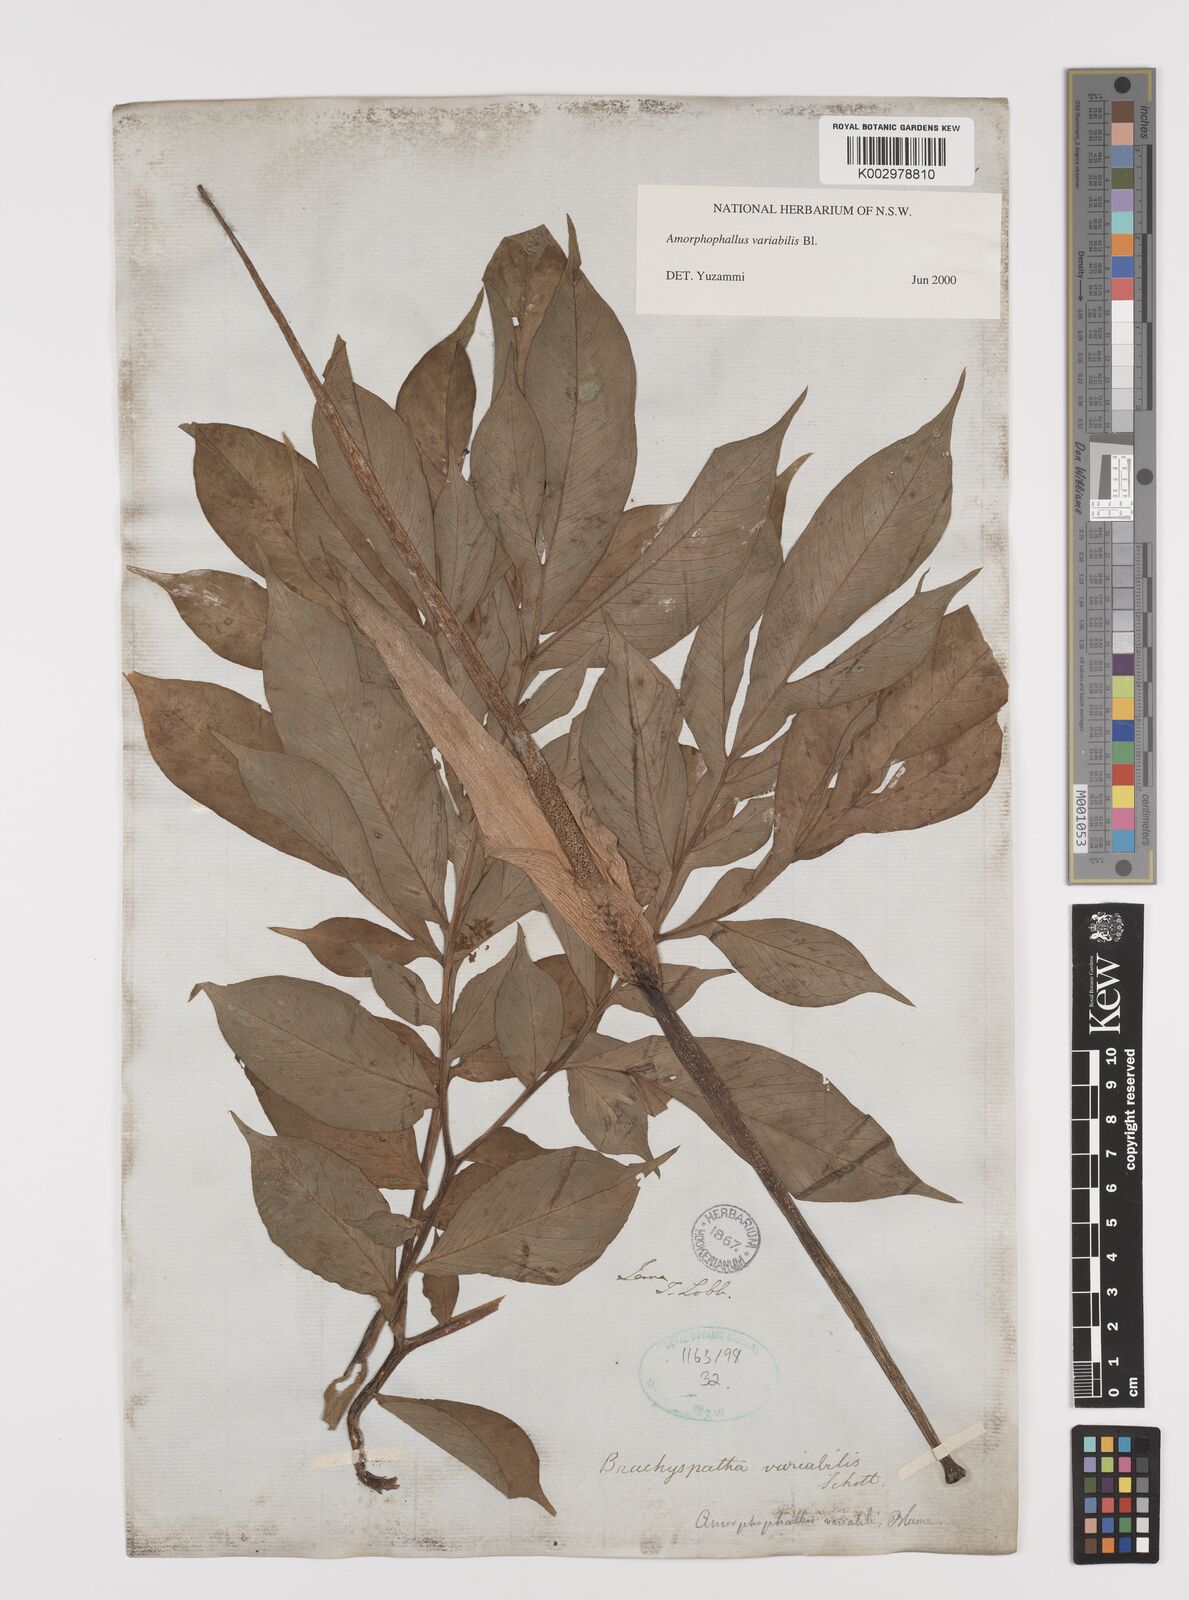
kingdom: Plantae
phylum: Tracheophyta
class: Liliopsida
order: Alismatales
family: Araceae
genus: Amorphophallus
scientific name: Amorphophallus variabilis
